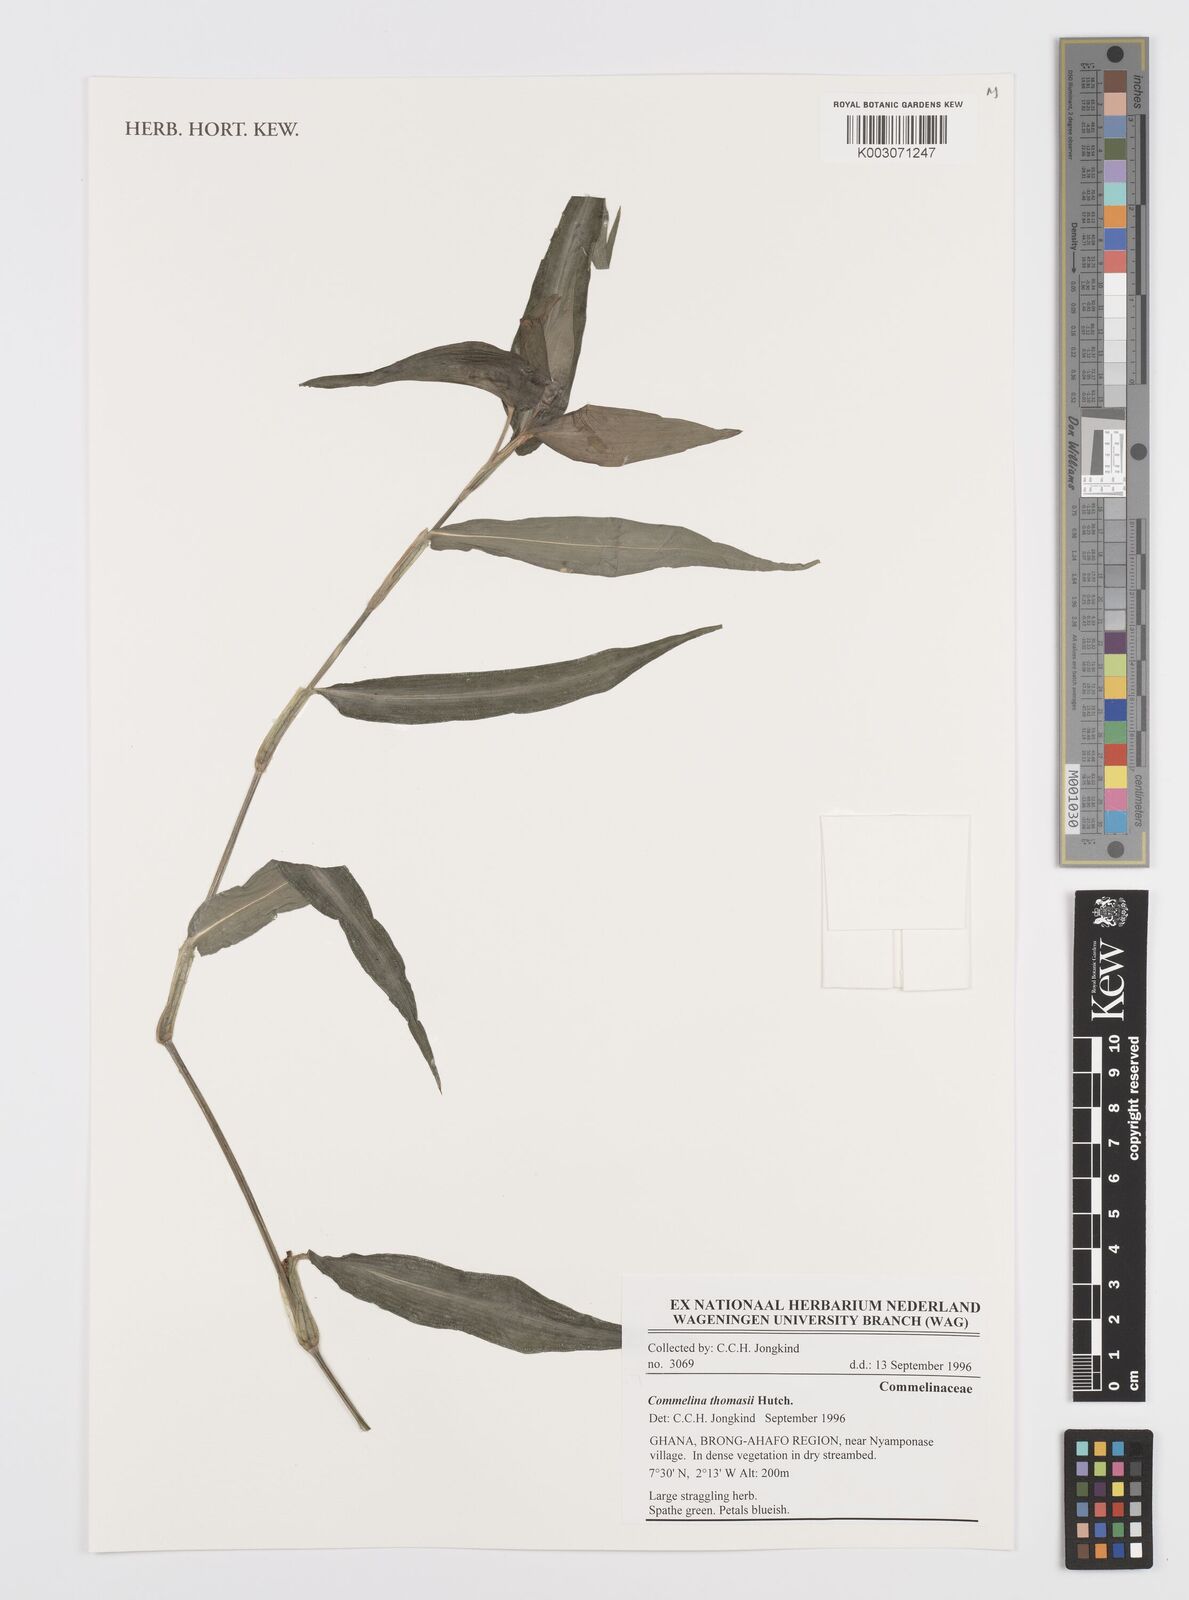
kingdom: Plantae
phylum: Tracheophyta
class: Liliopsida
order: Commelinales
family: Commelinaceae
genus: Commelina
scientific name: Commelina acutispatha
